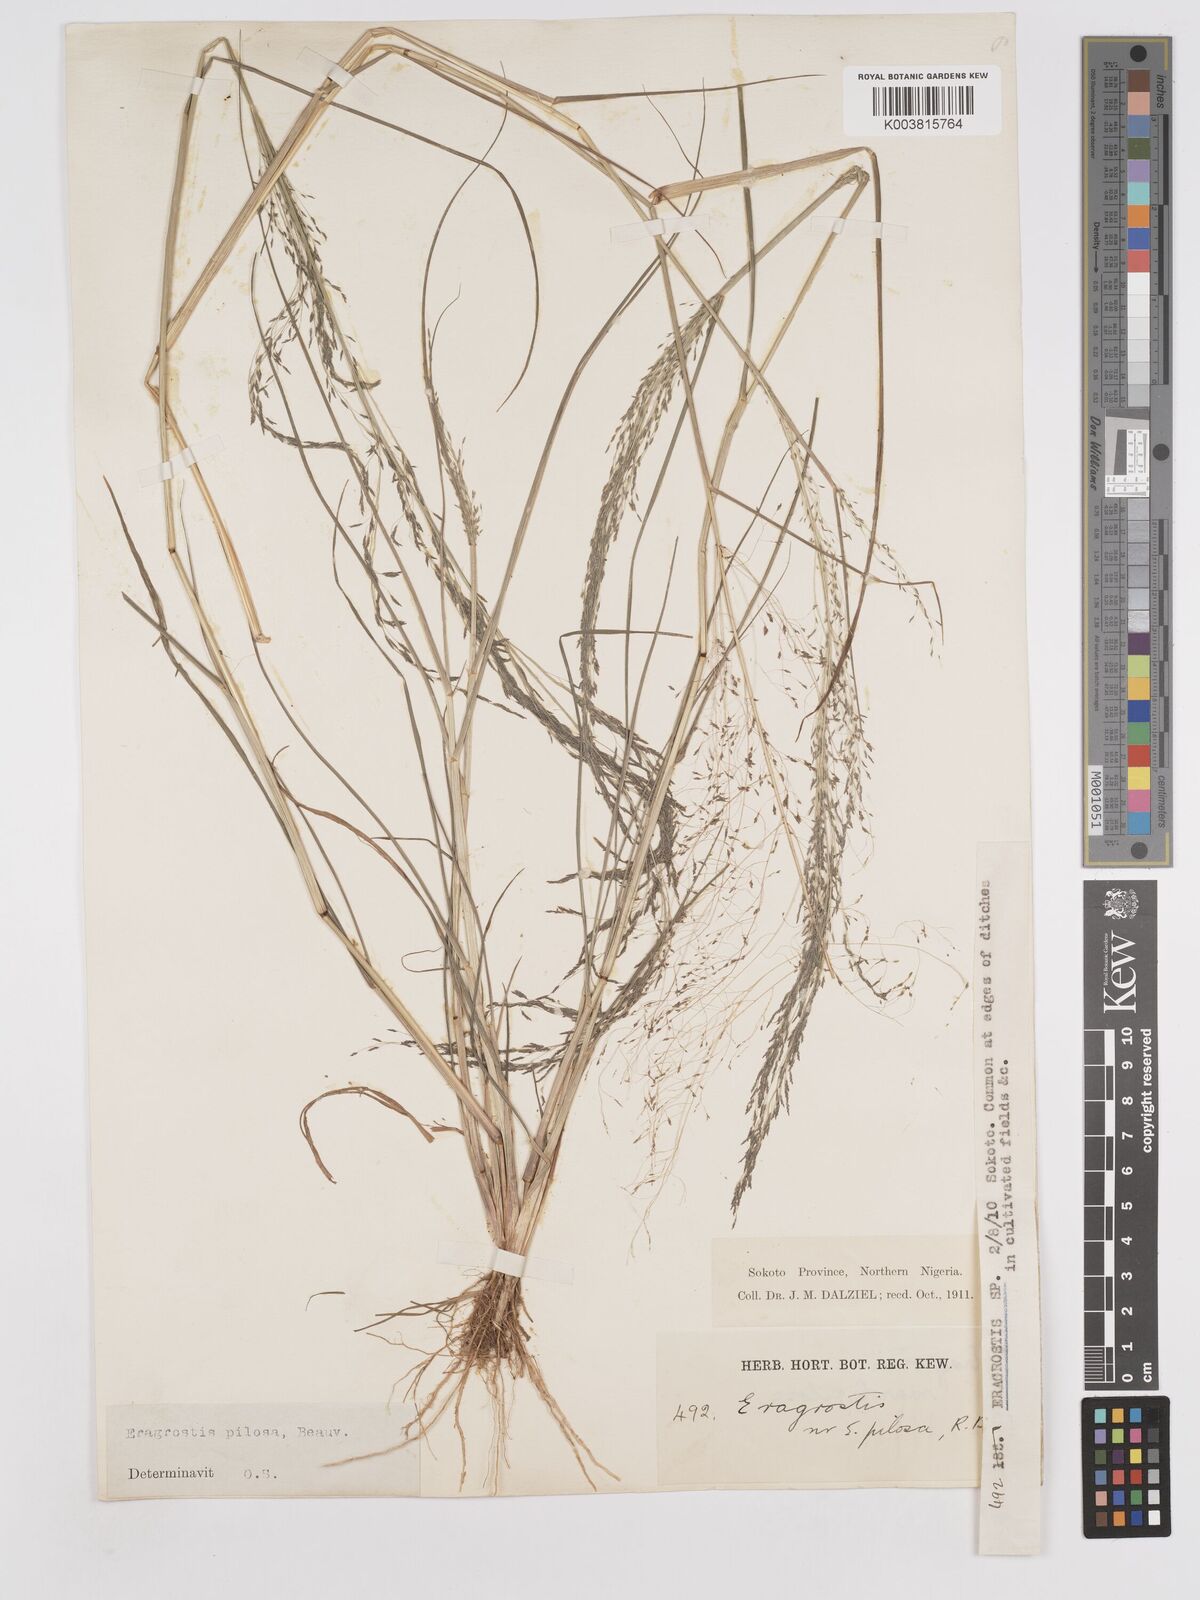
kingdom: Plantae
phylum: Tracheophyta
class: Liliopsida
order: Poales
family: Poaceae
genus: Eragrostis
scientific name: Eragrostis pilosa
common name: Indian lovegrass
